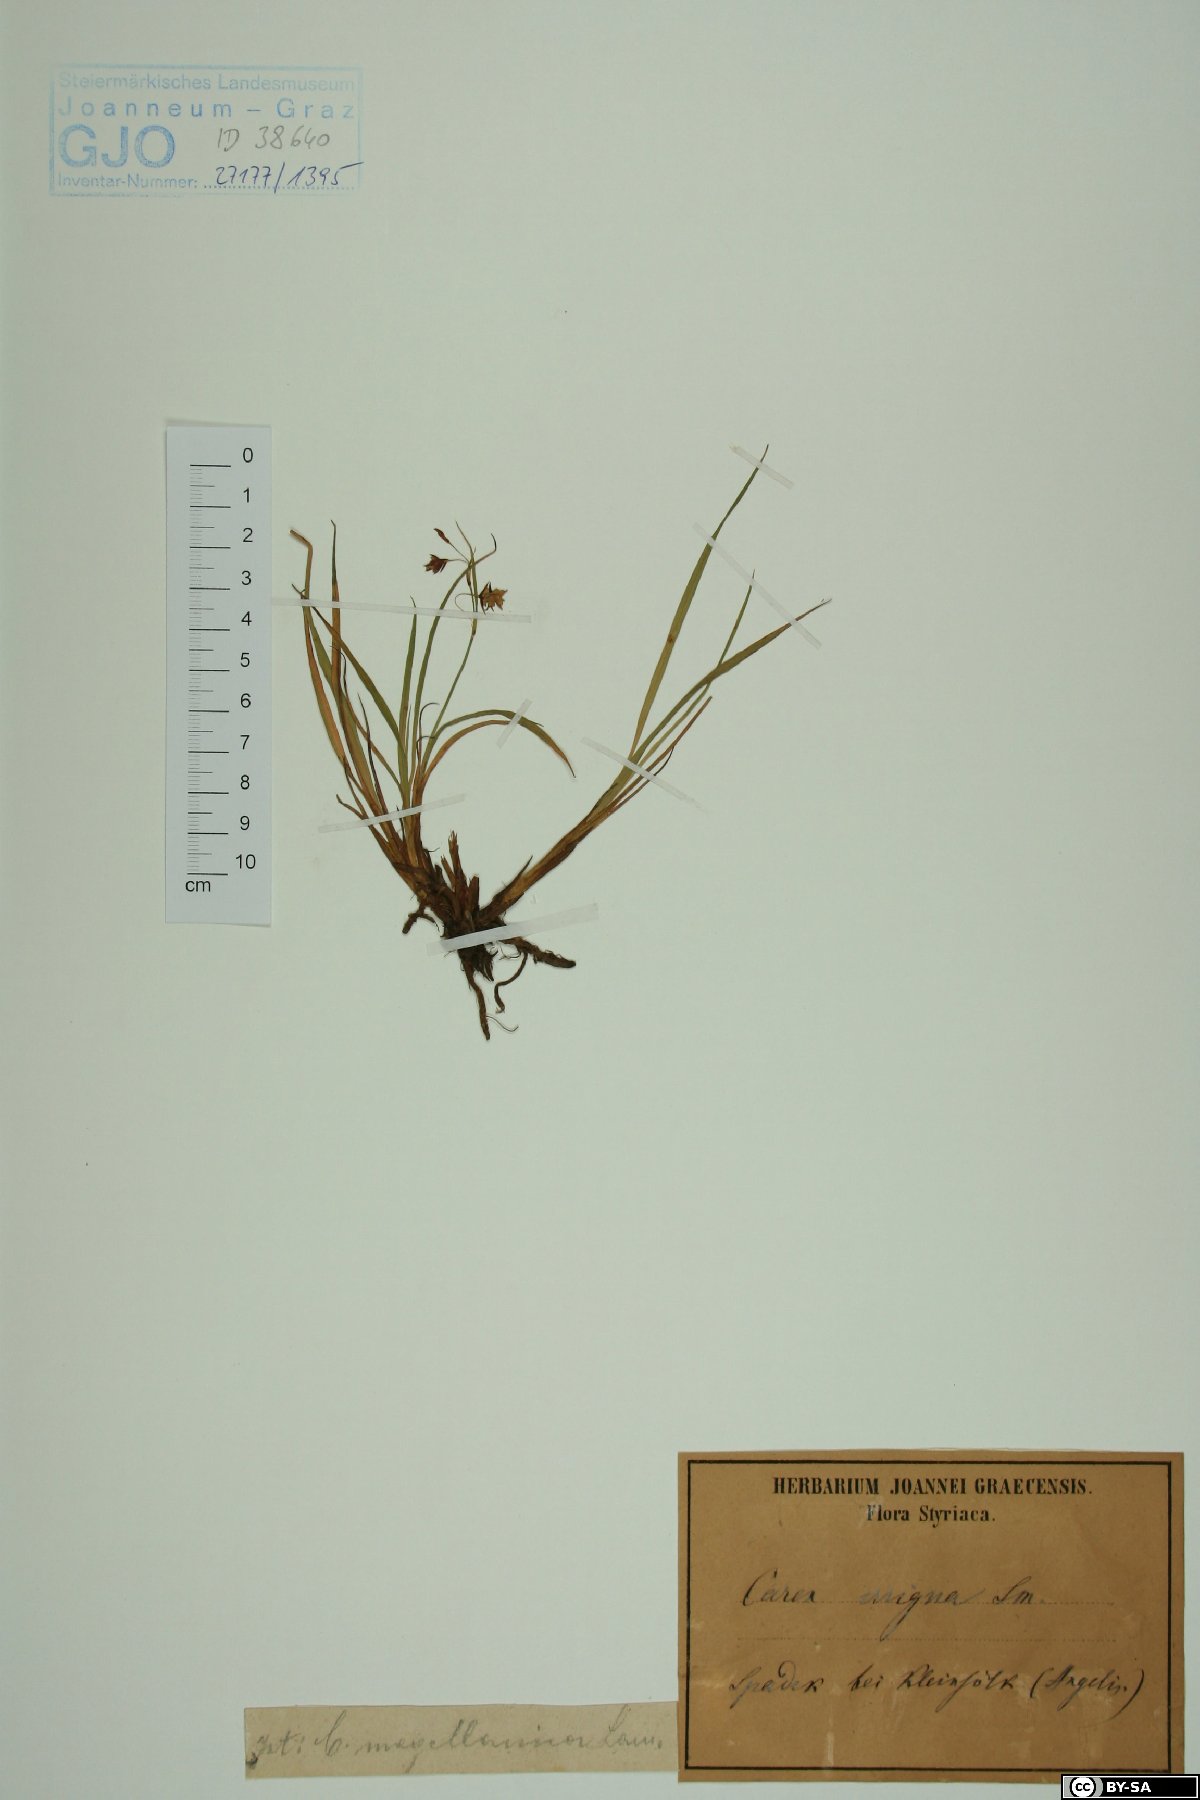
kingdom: Plantae
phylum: Tracheophyta
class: Liliopsida
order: Poales
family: Cyperaceae
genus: Carex
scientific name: Carex magellanica
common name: Bog sedge
